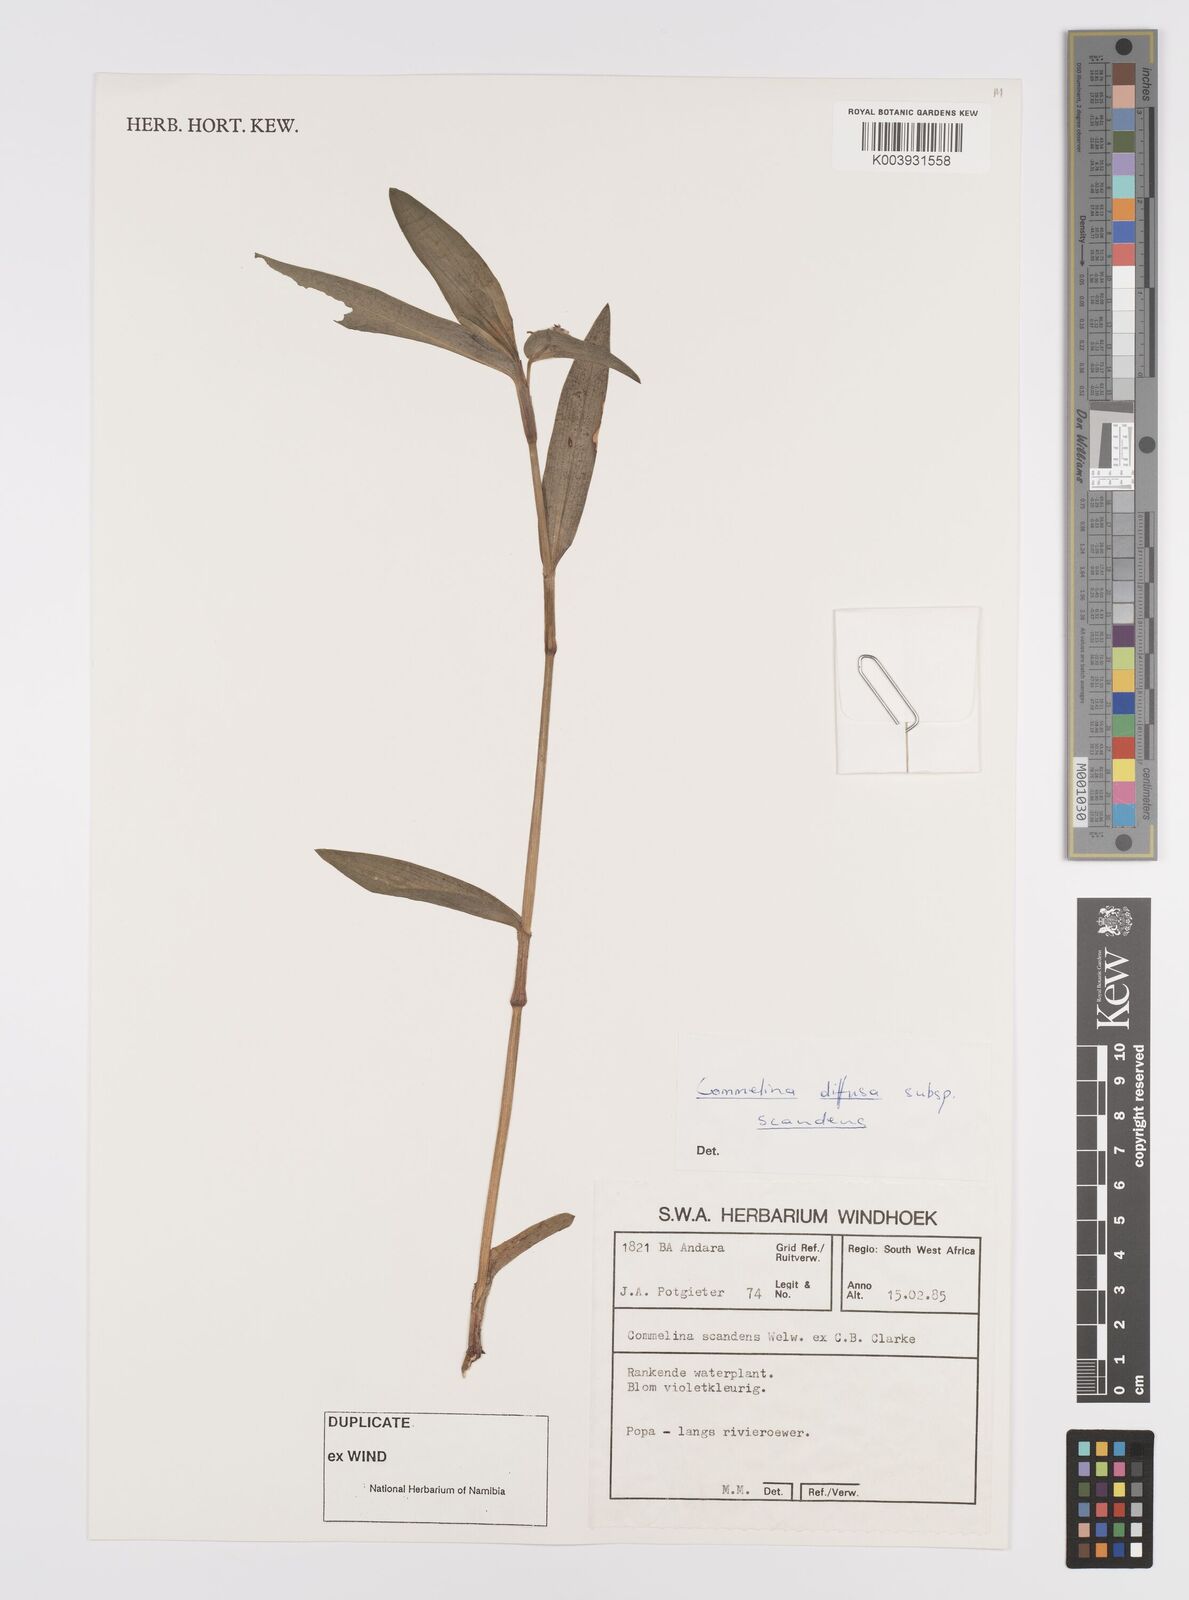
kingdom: Plantae
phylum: Tracheophyta
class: Liliopsida
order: Commelinales
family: Commelinaceae
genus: Commelina
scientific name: Commelina scandens
